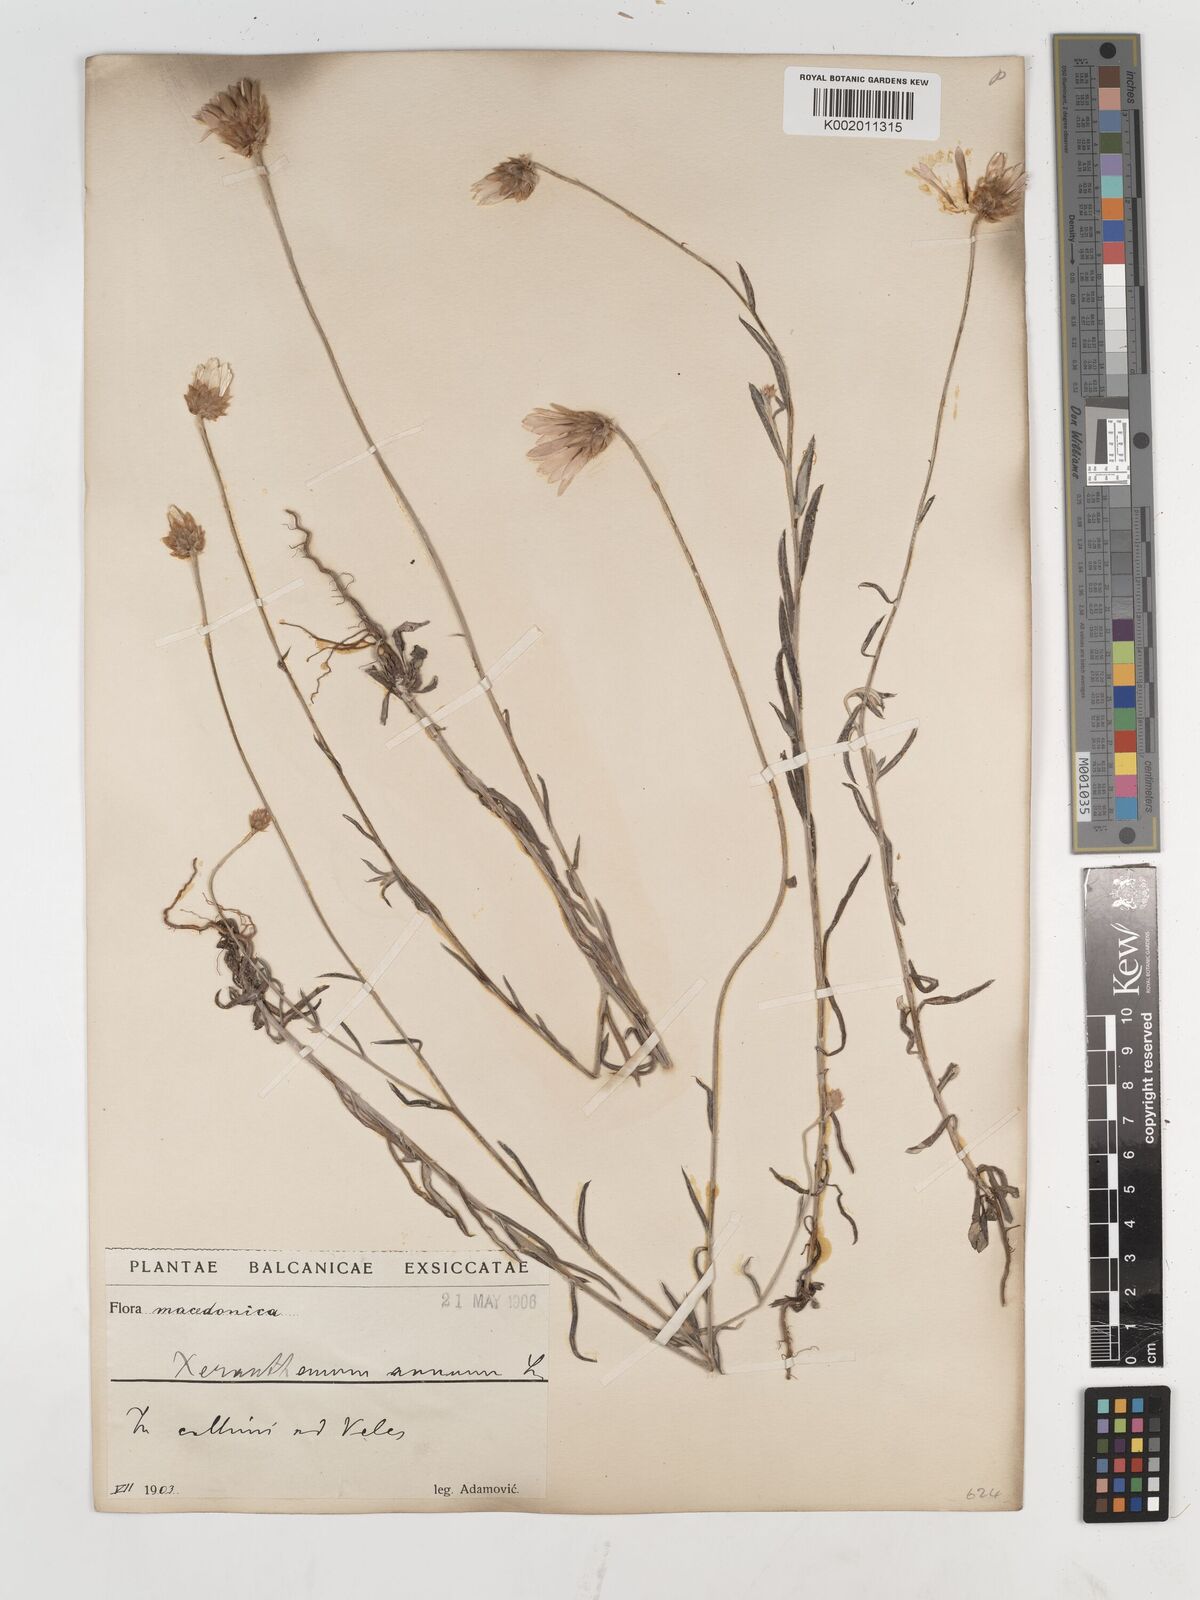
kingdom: Plantae
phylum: Tracheophyta
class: Magnoliopsida
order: Asterales
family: Asteraceae
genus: Xeranthemum
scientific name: Xeranthemum annuum
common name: Immortelle
